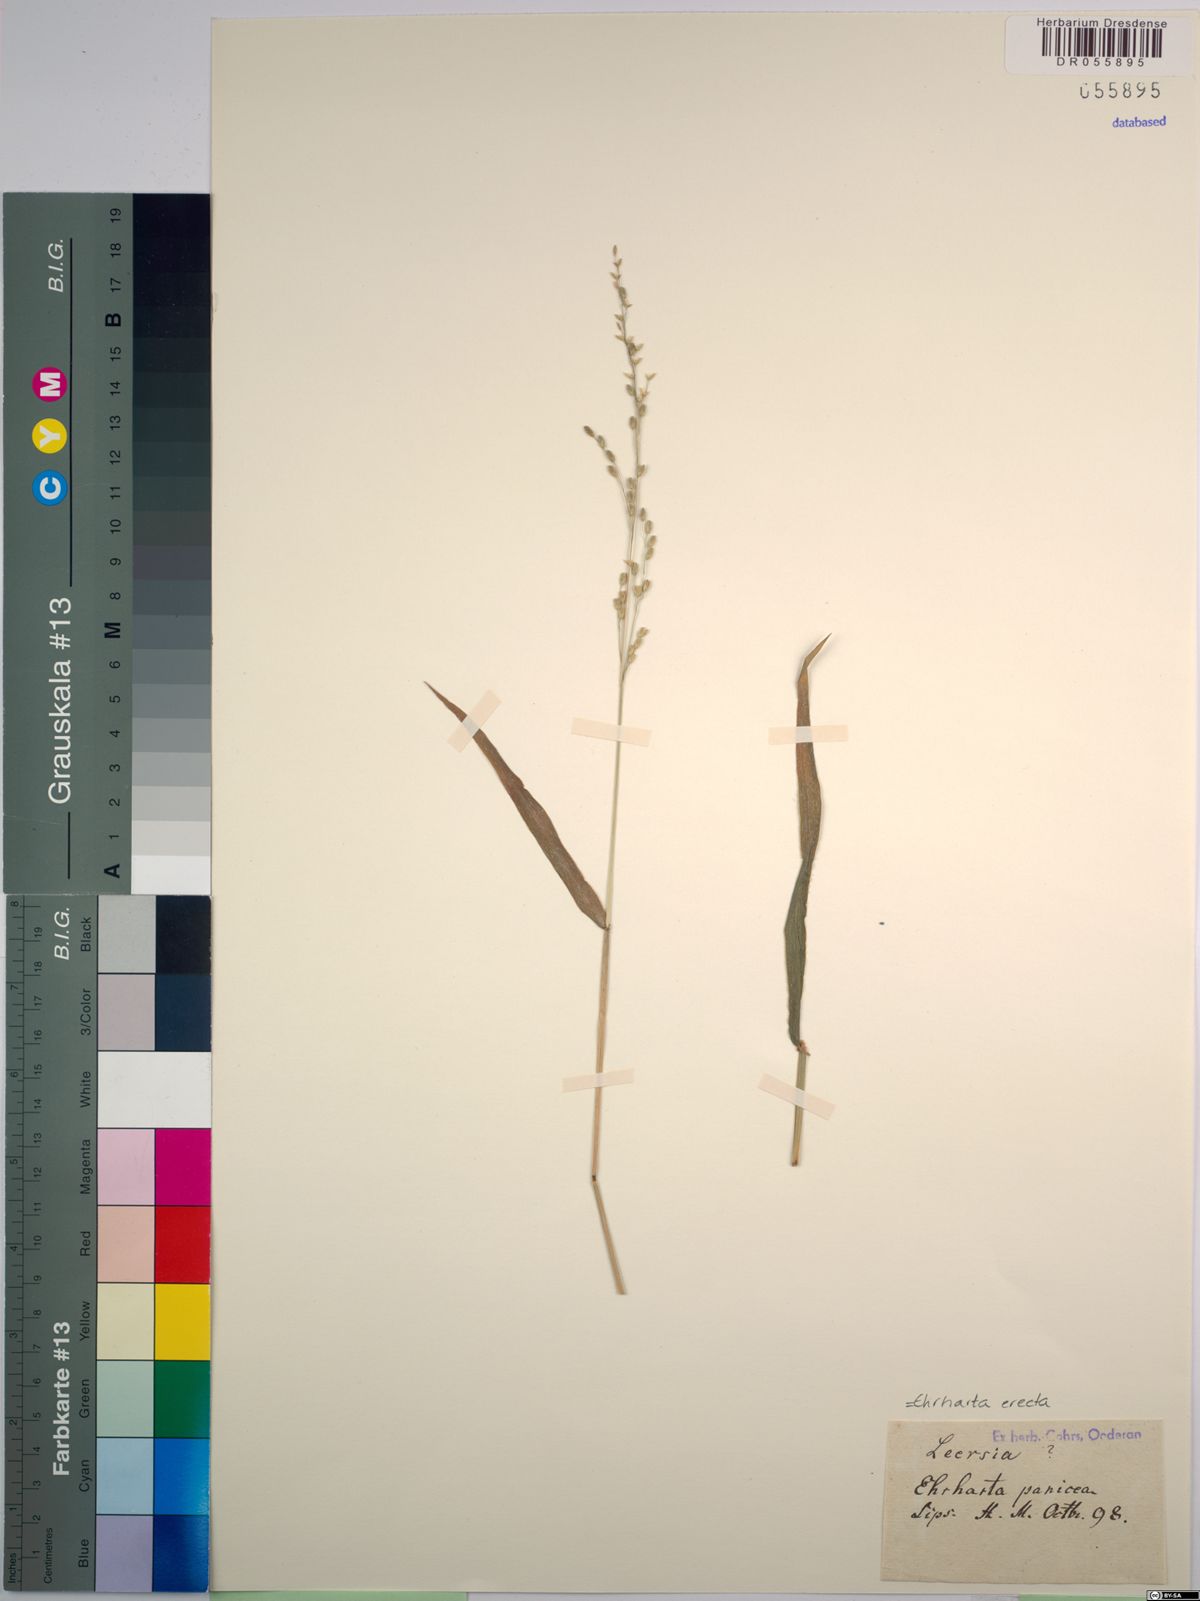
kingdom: Plantae
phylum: Tracheophyta
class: Liliopsida
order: Poales
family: Poaceae
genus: Ehrharta
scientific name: Ehrharta erecta
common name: Panic veldtgrass
